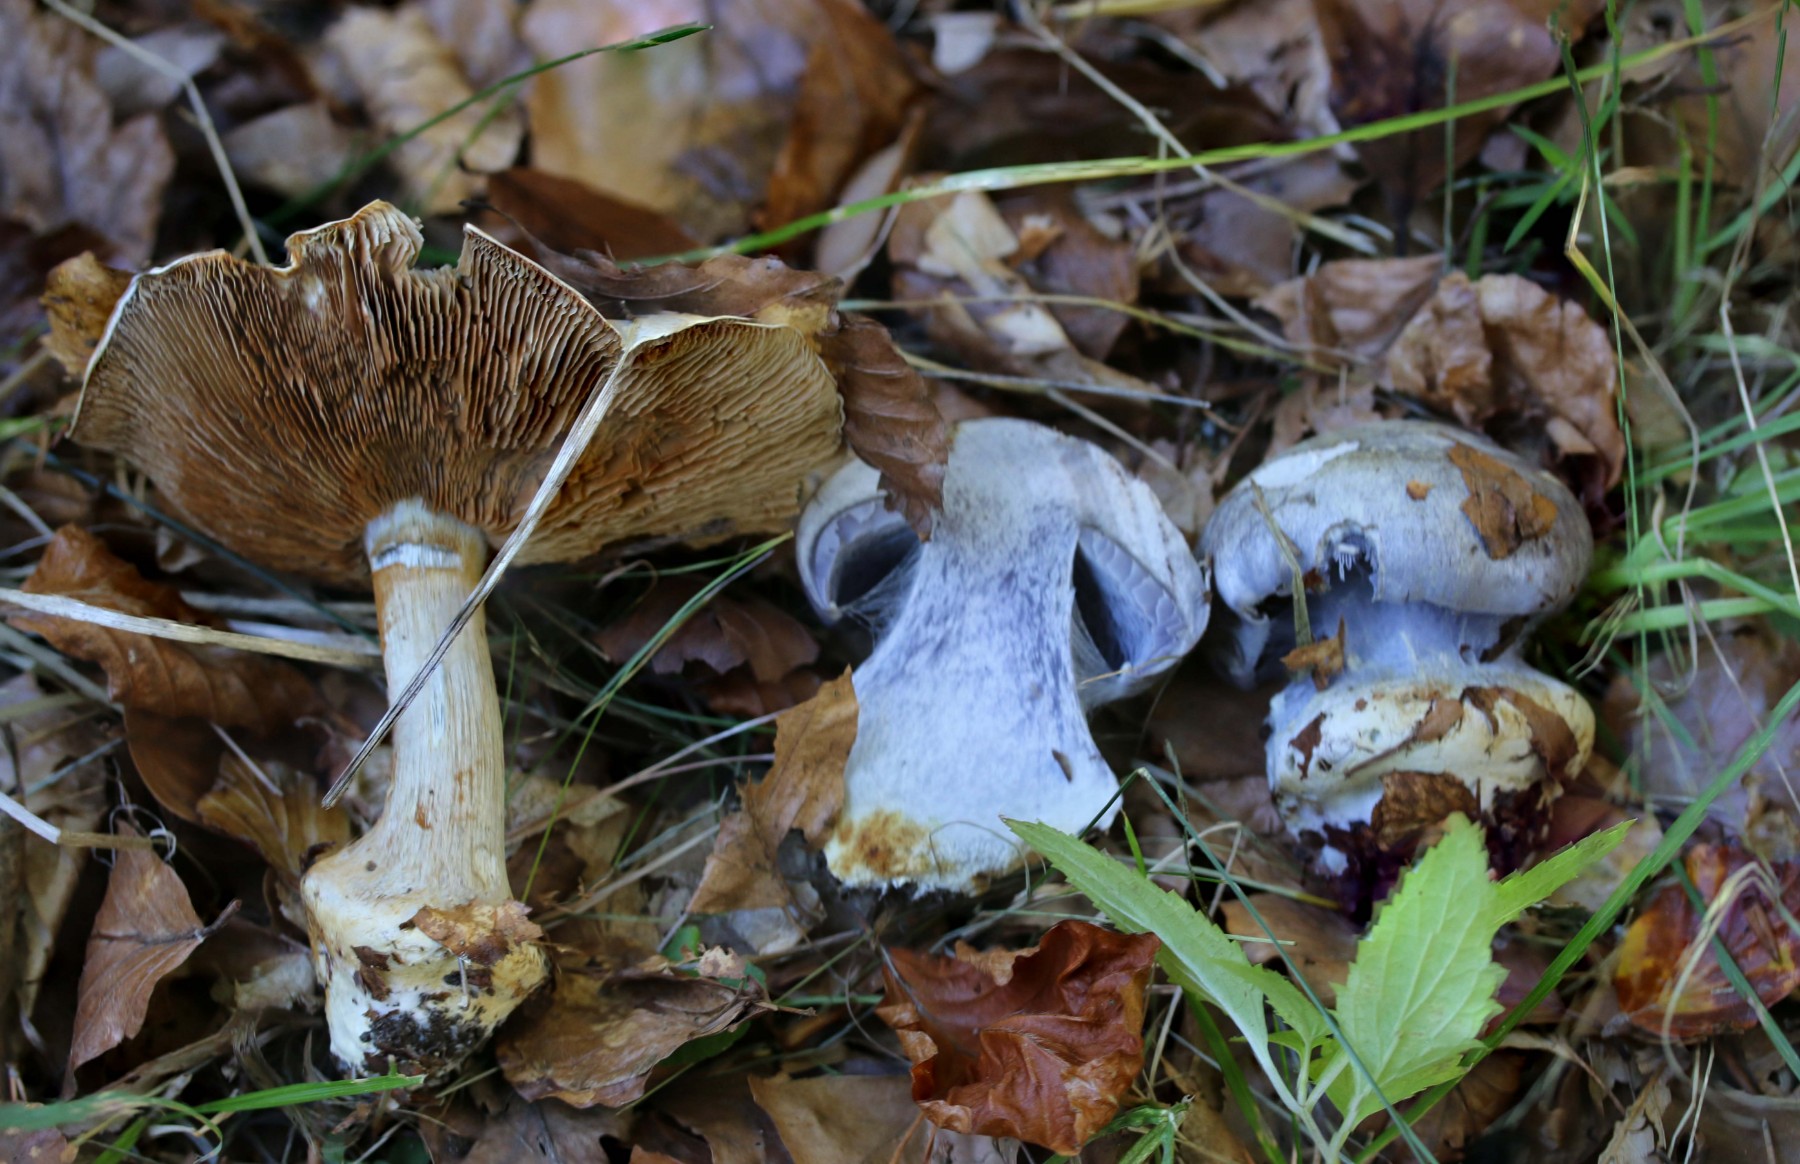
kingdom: Fungi
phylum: Basidiomycota
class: Agaricomycetes
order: Agaricales
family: Cortinariaceae
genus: Cortinarius
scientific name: Cortinarius caerulescens
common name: blåkødet slørhat
